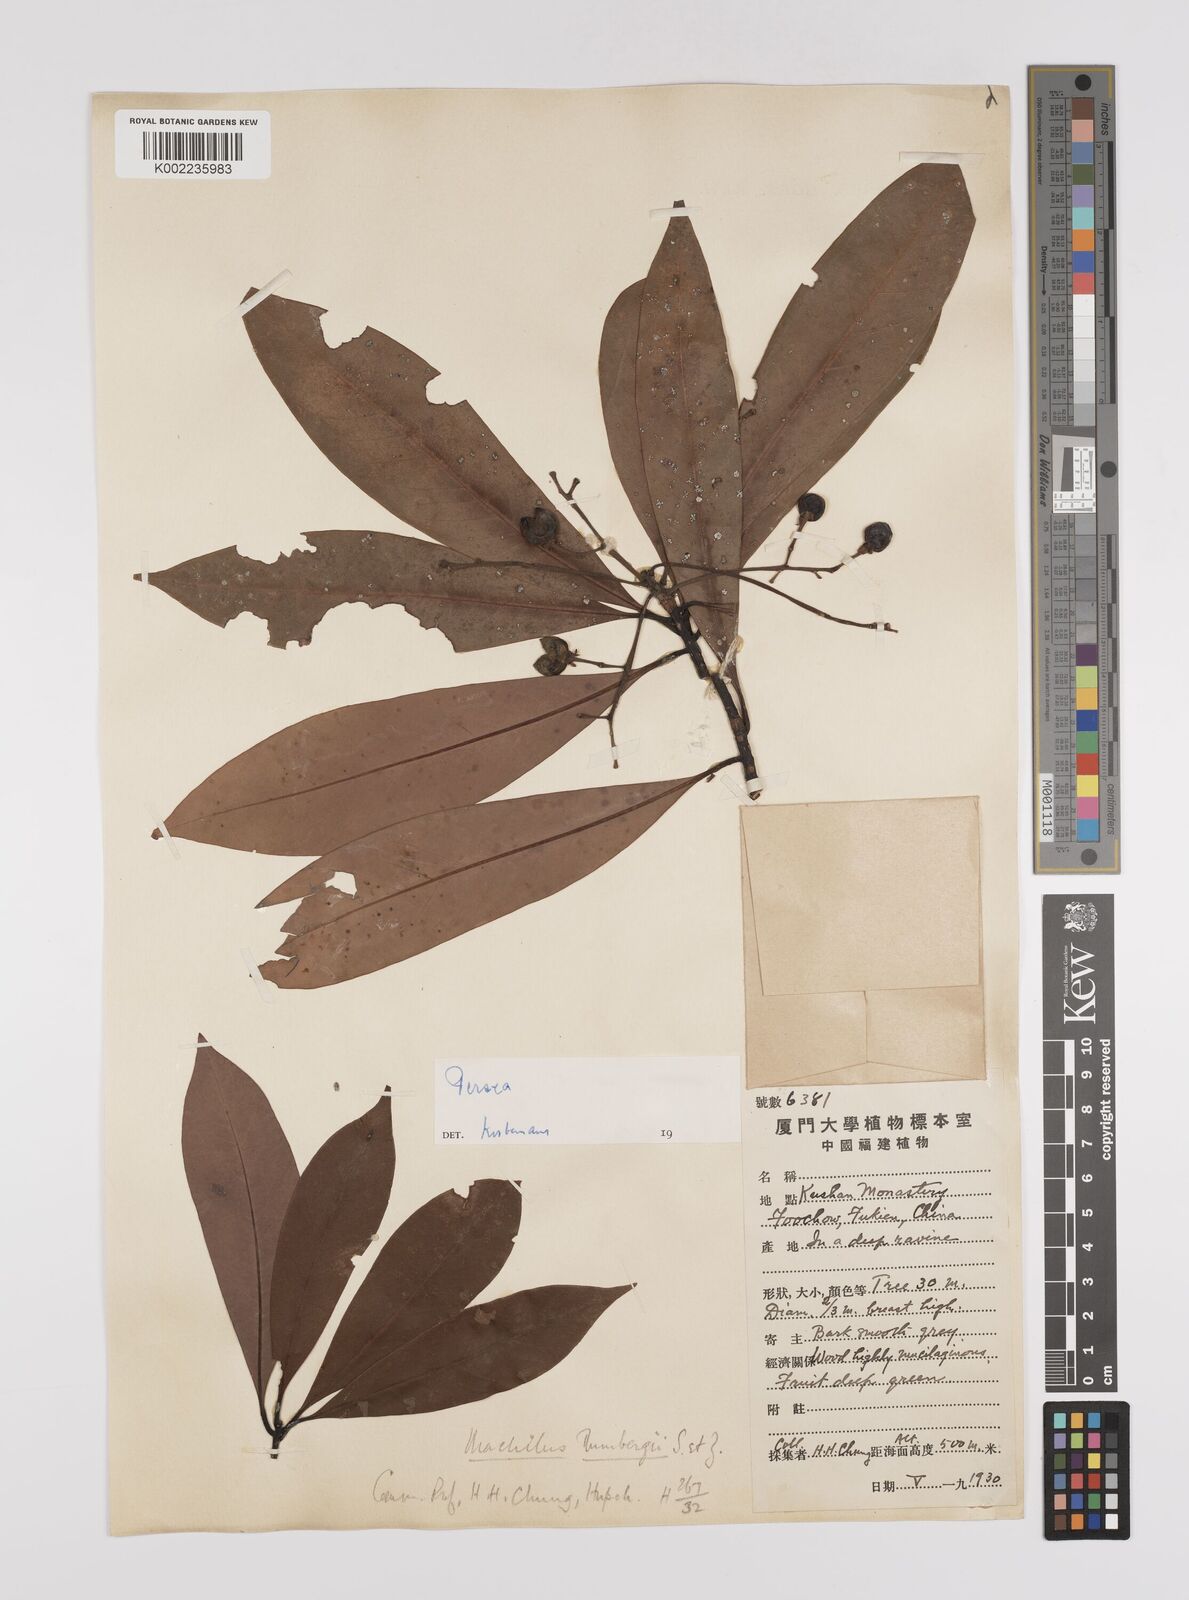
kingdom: Plantae
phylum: Tracheophyta
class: Magnoliopsida
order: Laurales
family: Lauraceae
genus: Persea
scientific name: Persea
